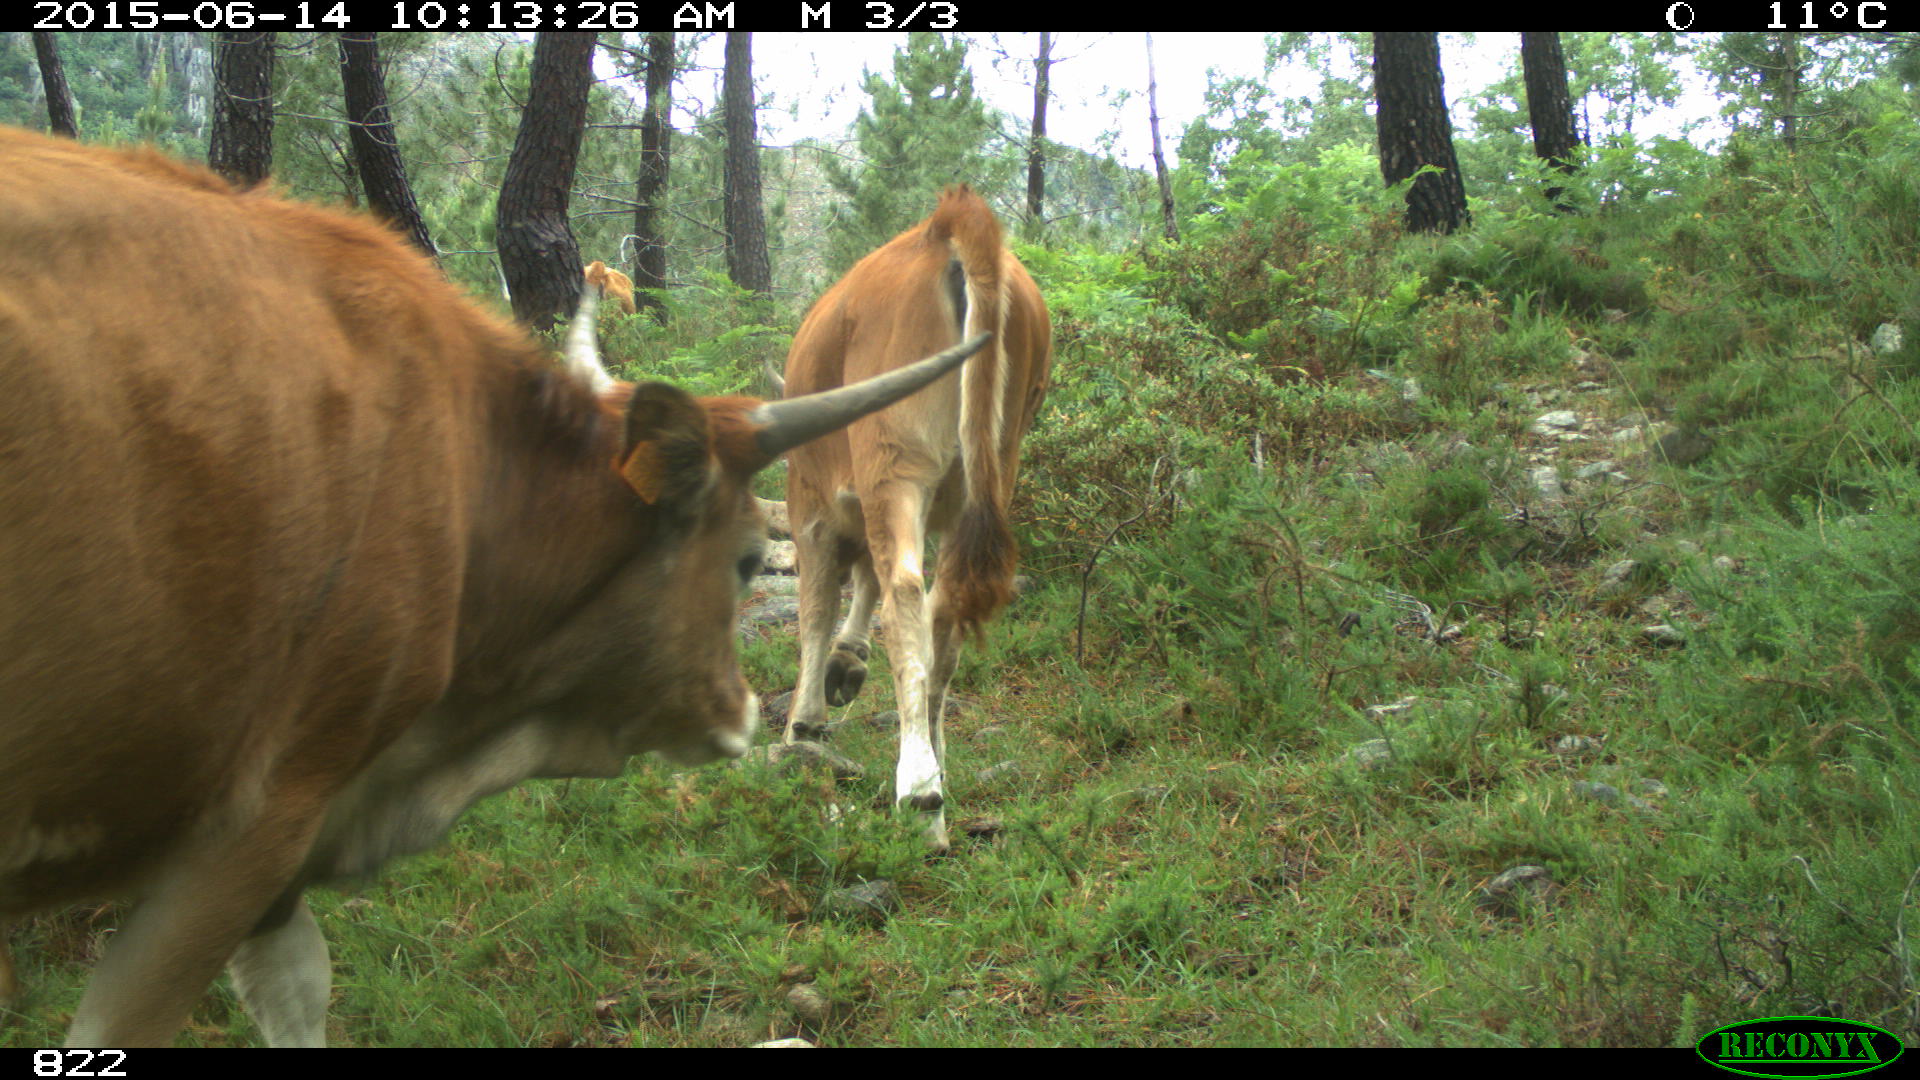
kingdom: Animalia
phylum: Chordata
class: Mammalia
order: Artiodactyla
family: Bovidae
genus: Bos
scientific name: Bos taurus
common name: Domesticated cattle
